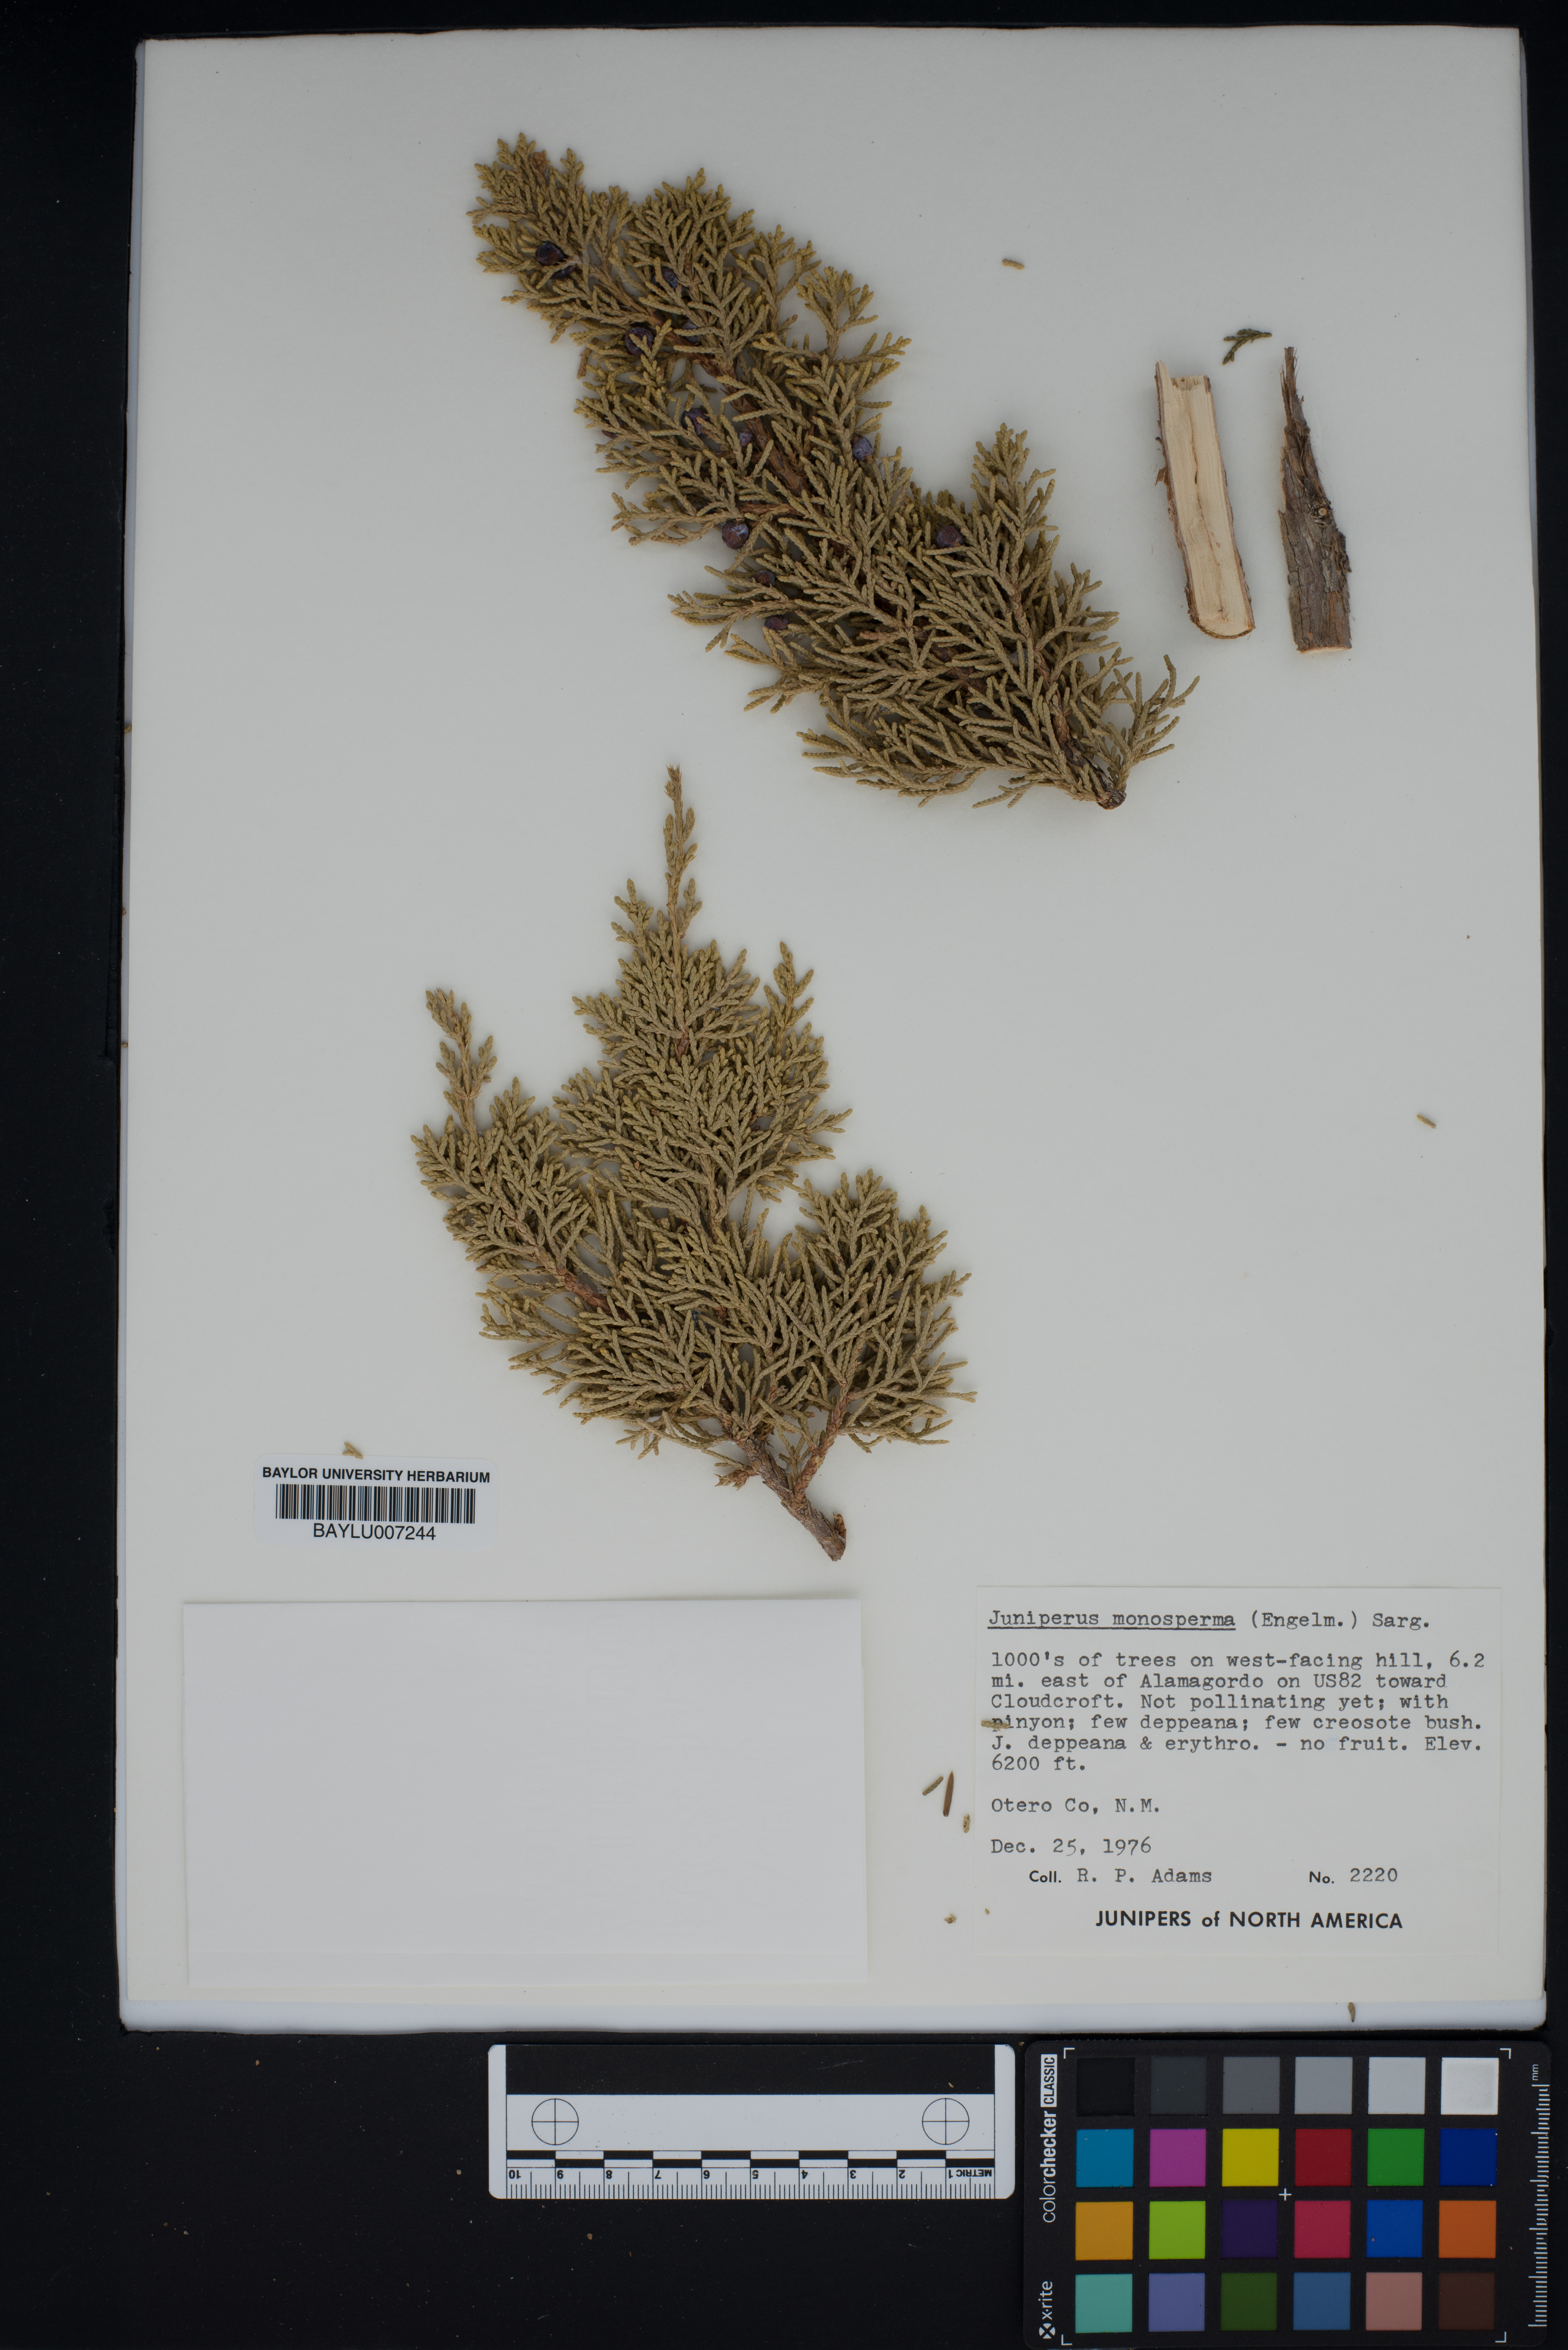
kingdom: Plantae
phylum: Tracheophyta
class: Pinopsida
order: Pinales
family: Cupressaceae
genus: Juniperus
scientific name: Juniperus monosperma
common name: One-seed juniper
